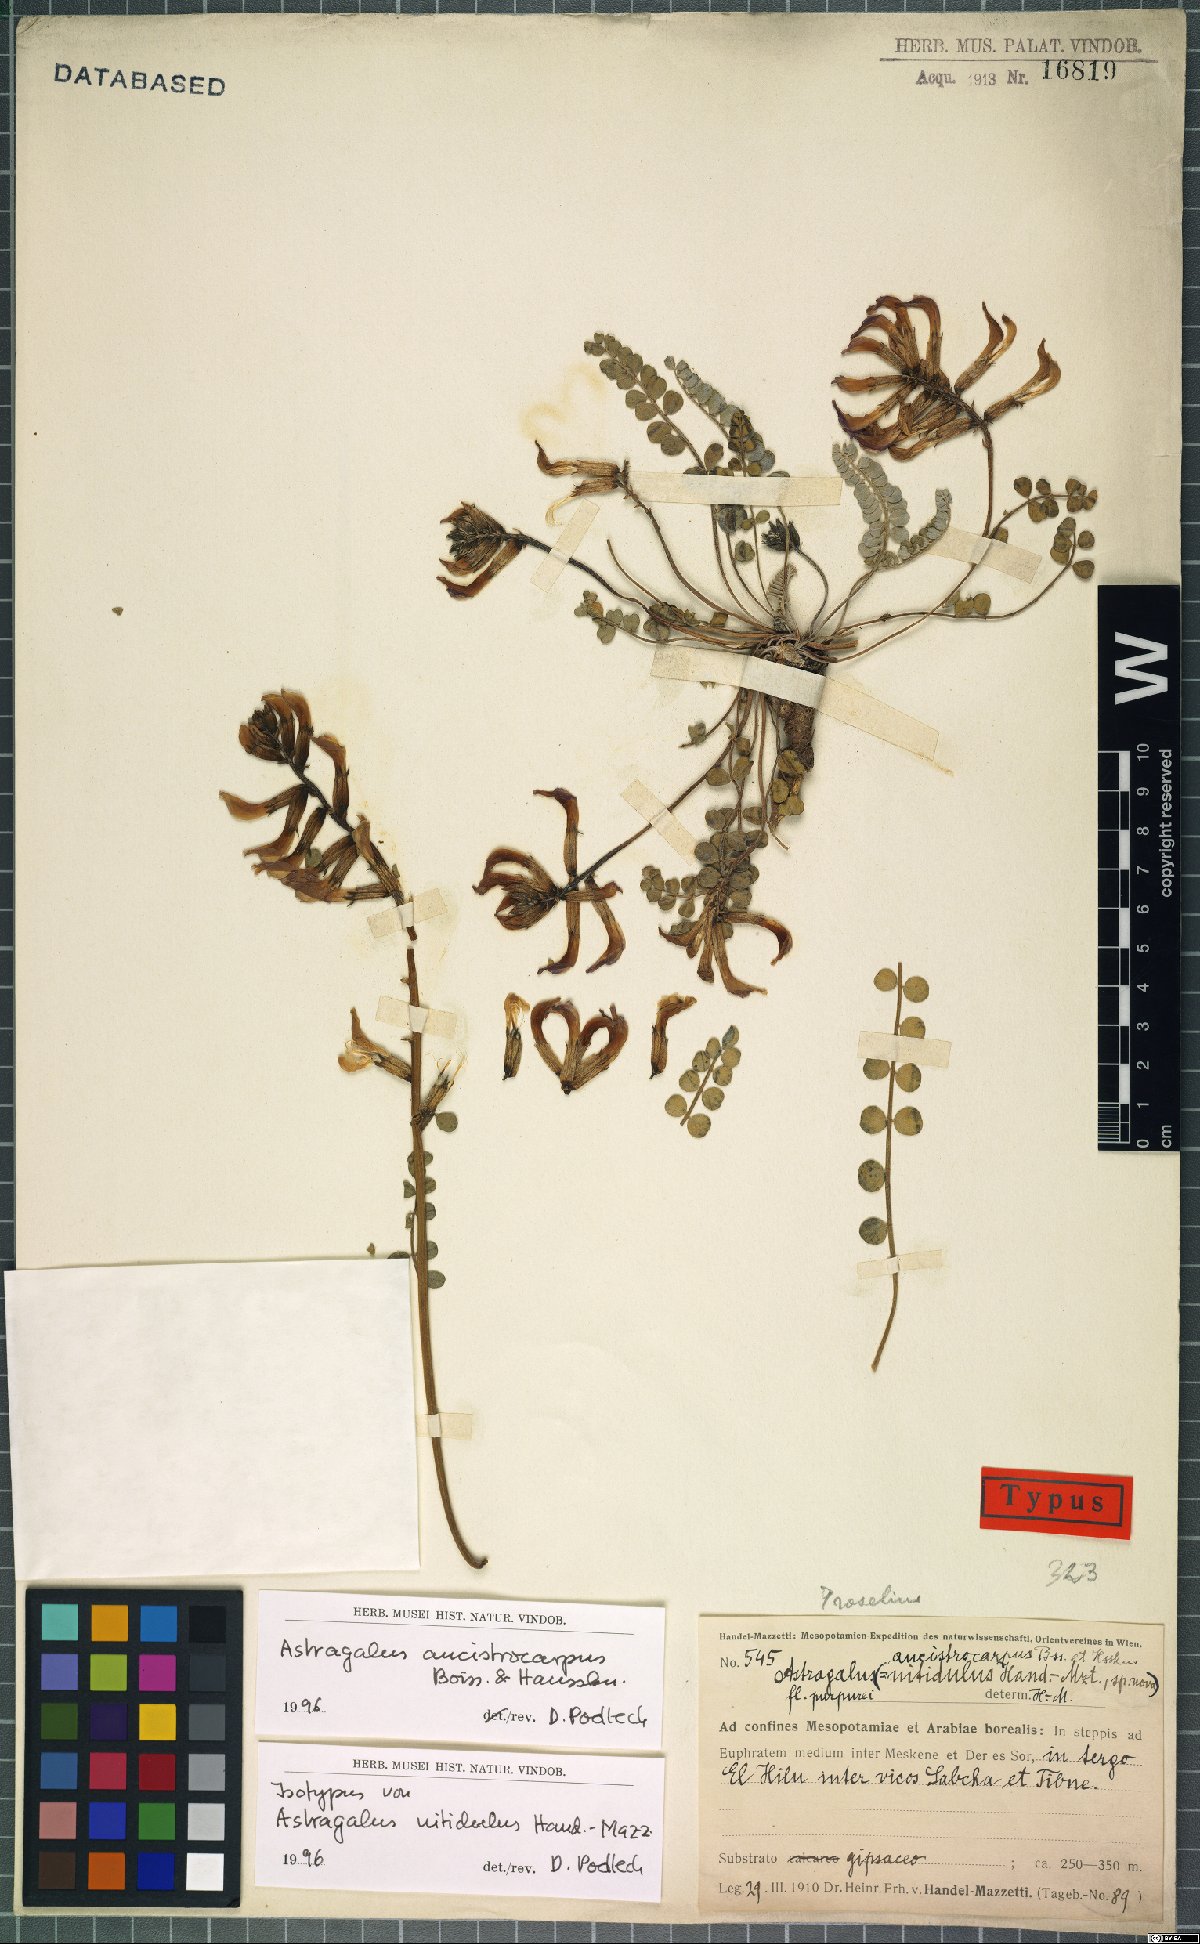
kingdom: Plantae
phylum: Tracheophyta
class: Magnoliopsida
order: Fabales
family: Fabaceae
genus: Astragalus
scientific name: Astragalus ancistrocarpus
